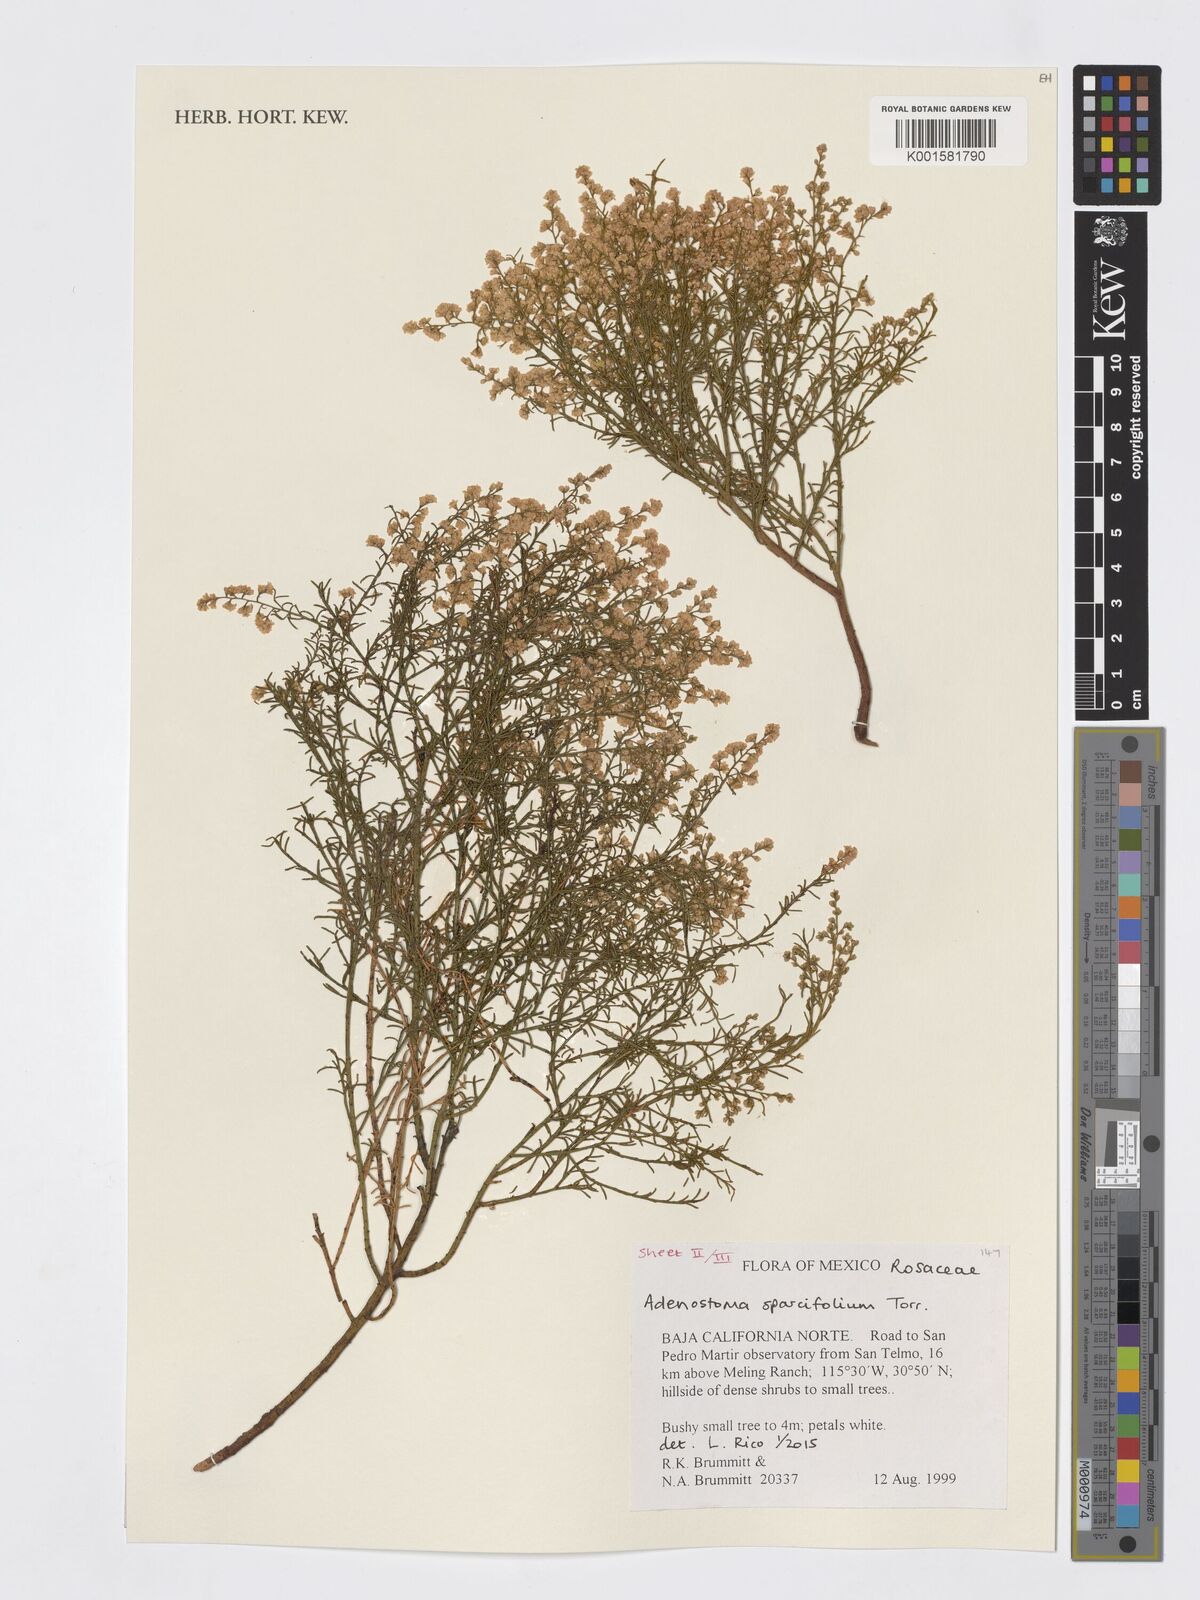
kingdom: Plantae
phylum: Tracheophyta
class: Magnoliopsida
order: Rosales
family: Rosaceae
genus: Adenostoma
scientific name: Adenostoma sparsifolium
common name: Red shank
